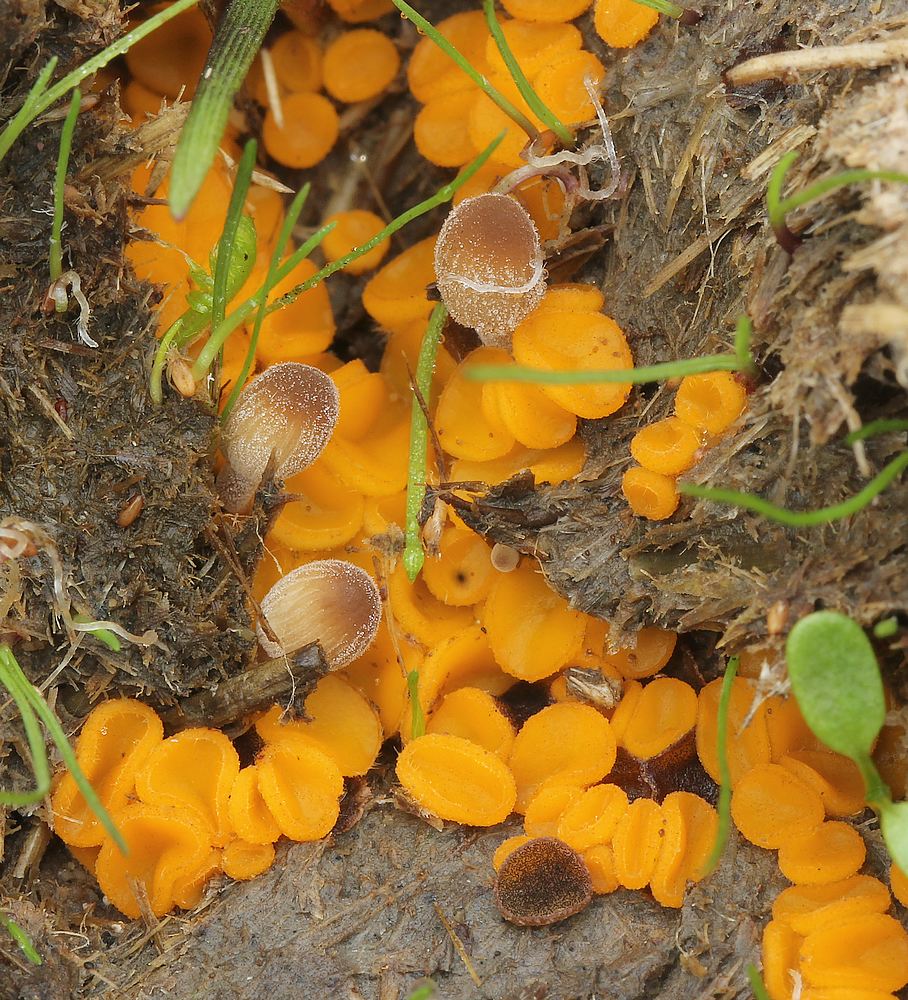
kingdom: Fungi
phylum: Ascomycota
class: Pezizomycetes
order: Pezizales
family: Pyronemataceae
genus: Cheilymenia
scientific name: Cheilymenia
